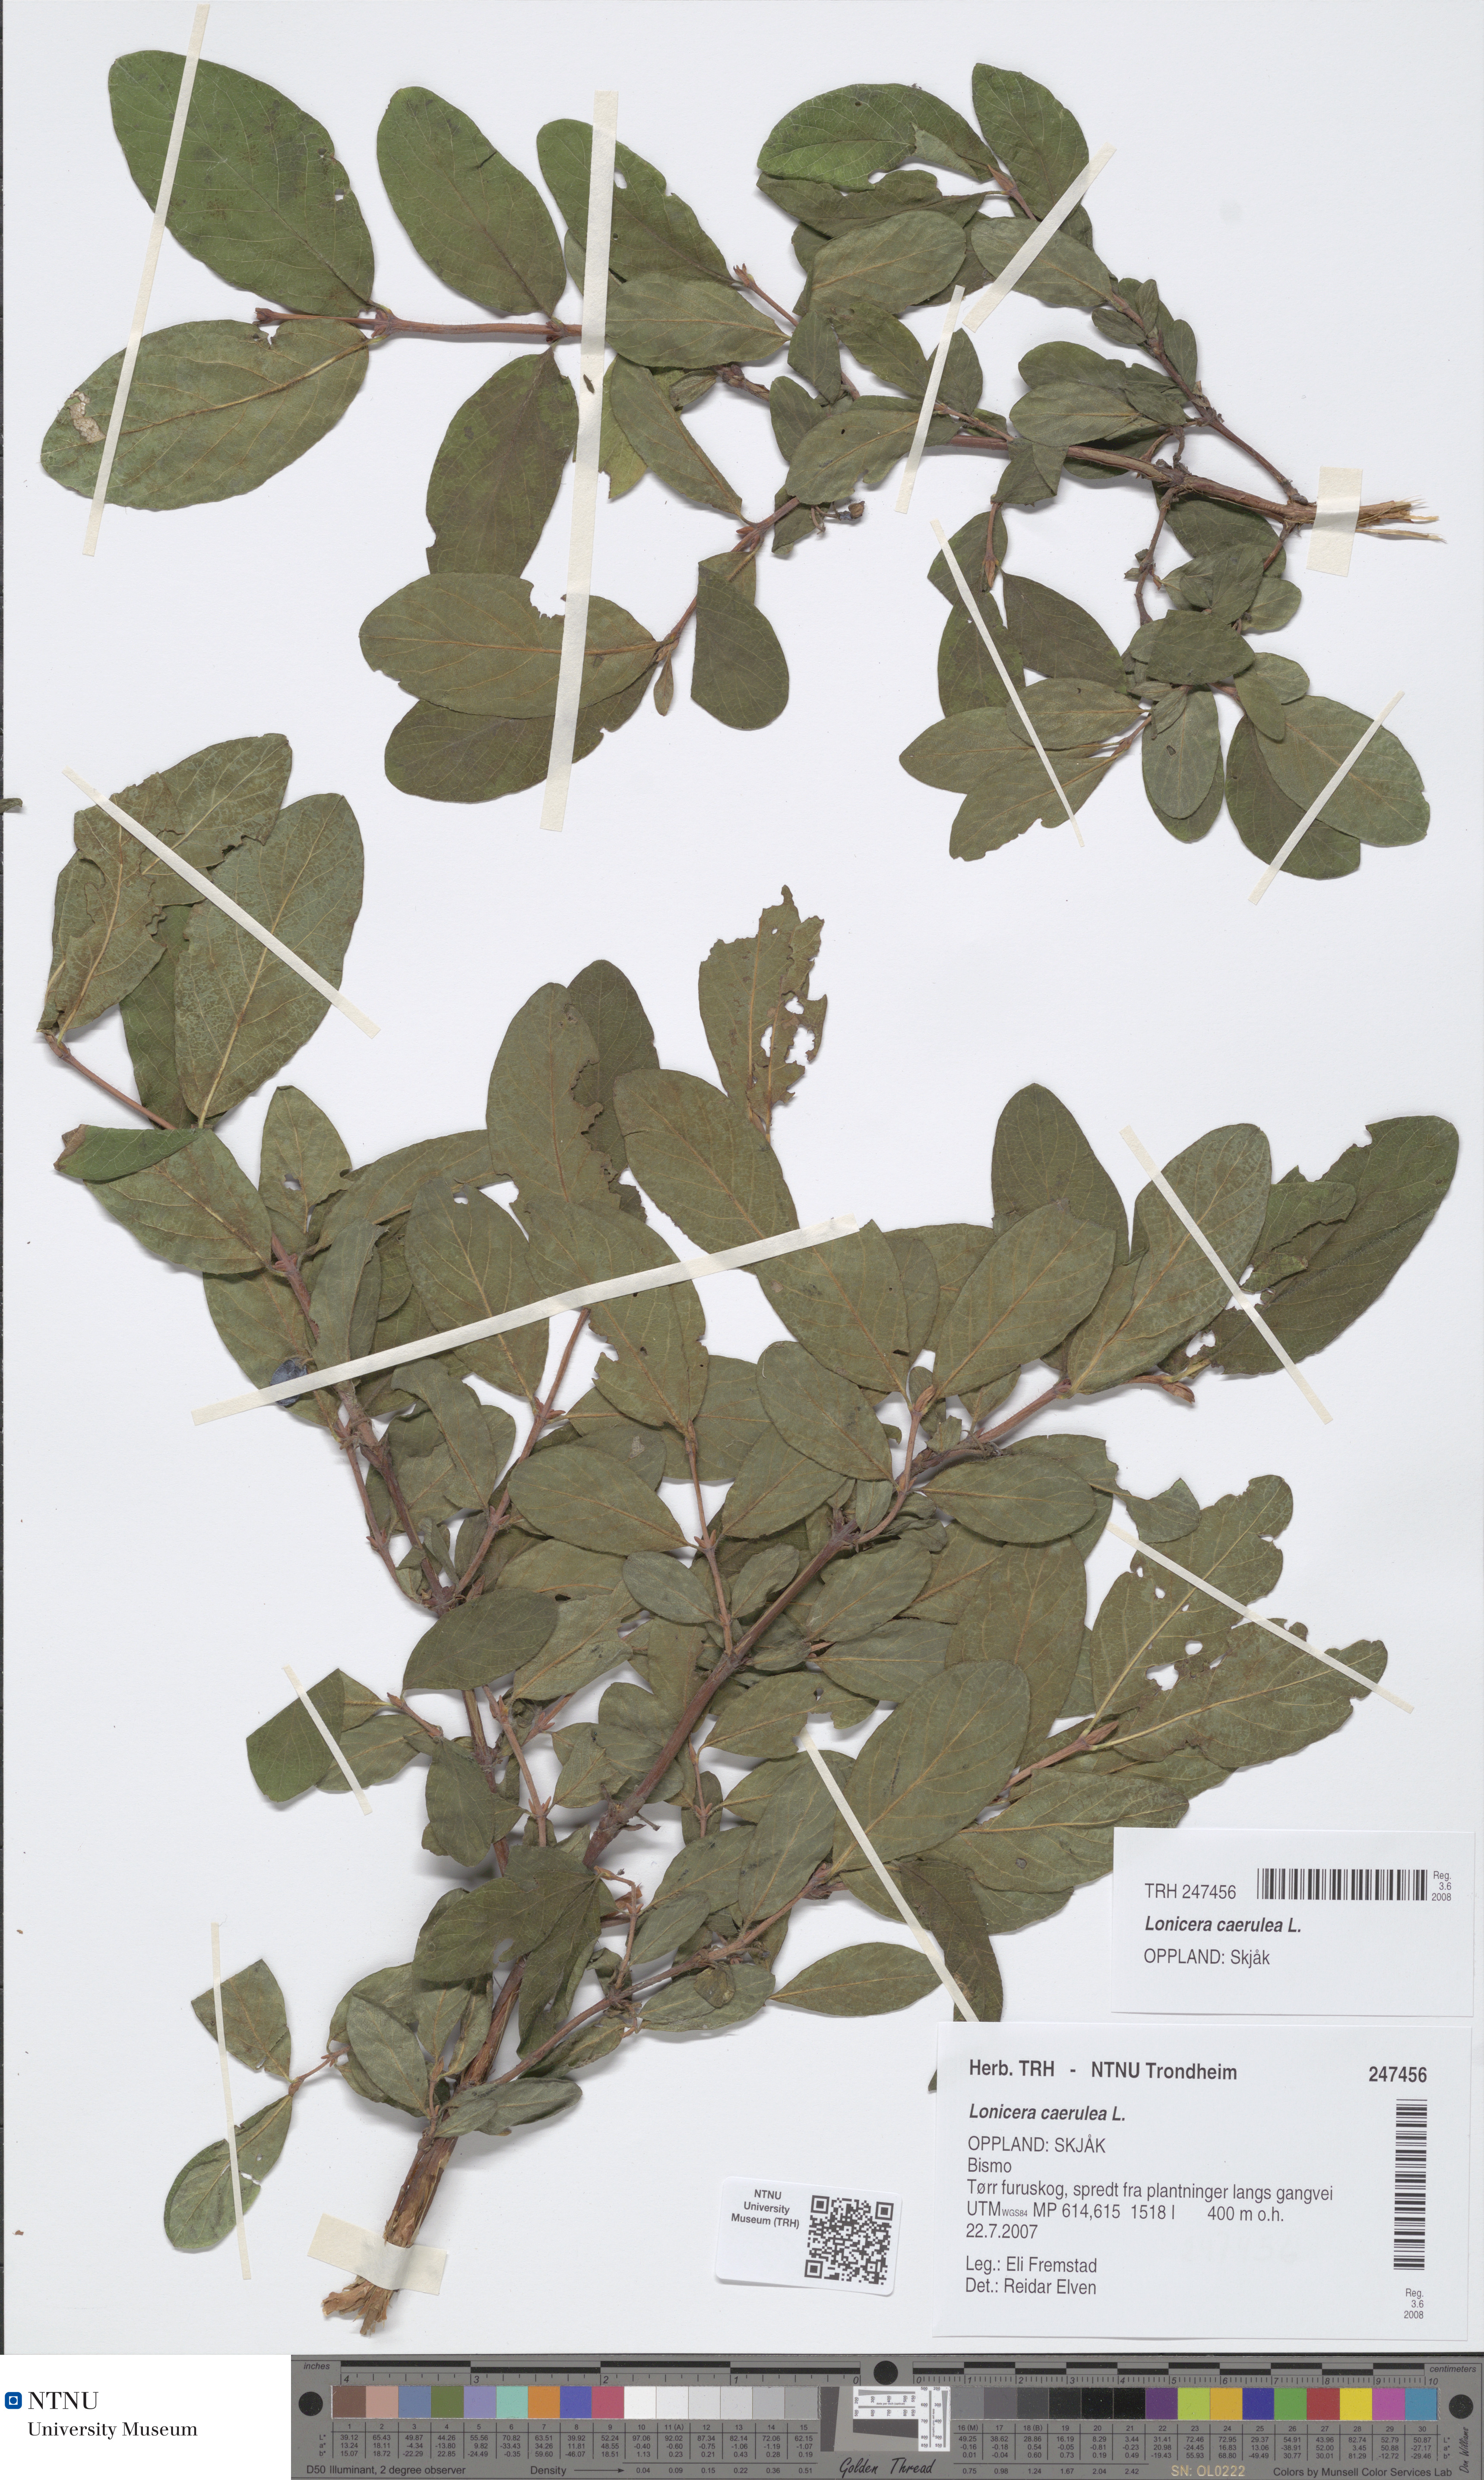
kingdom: Plantae
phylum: Tracheophyta
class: Magnoliopsida
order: Dipsacales
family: Caprifoliaceae
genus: Lonicera
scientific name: Lonicera caerulea
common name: Blue honeysuckle
